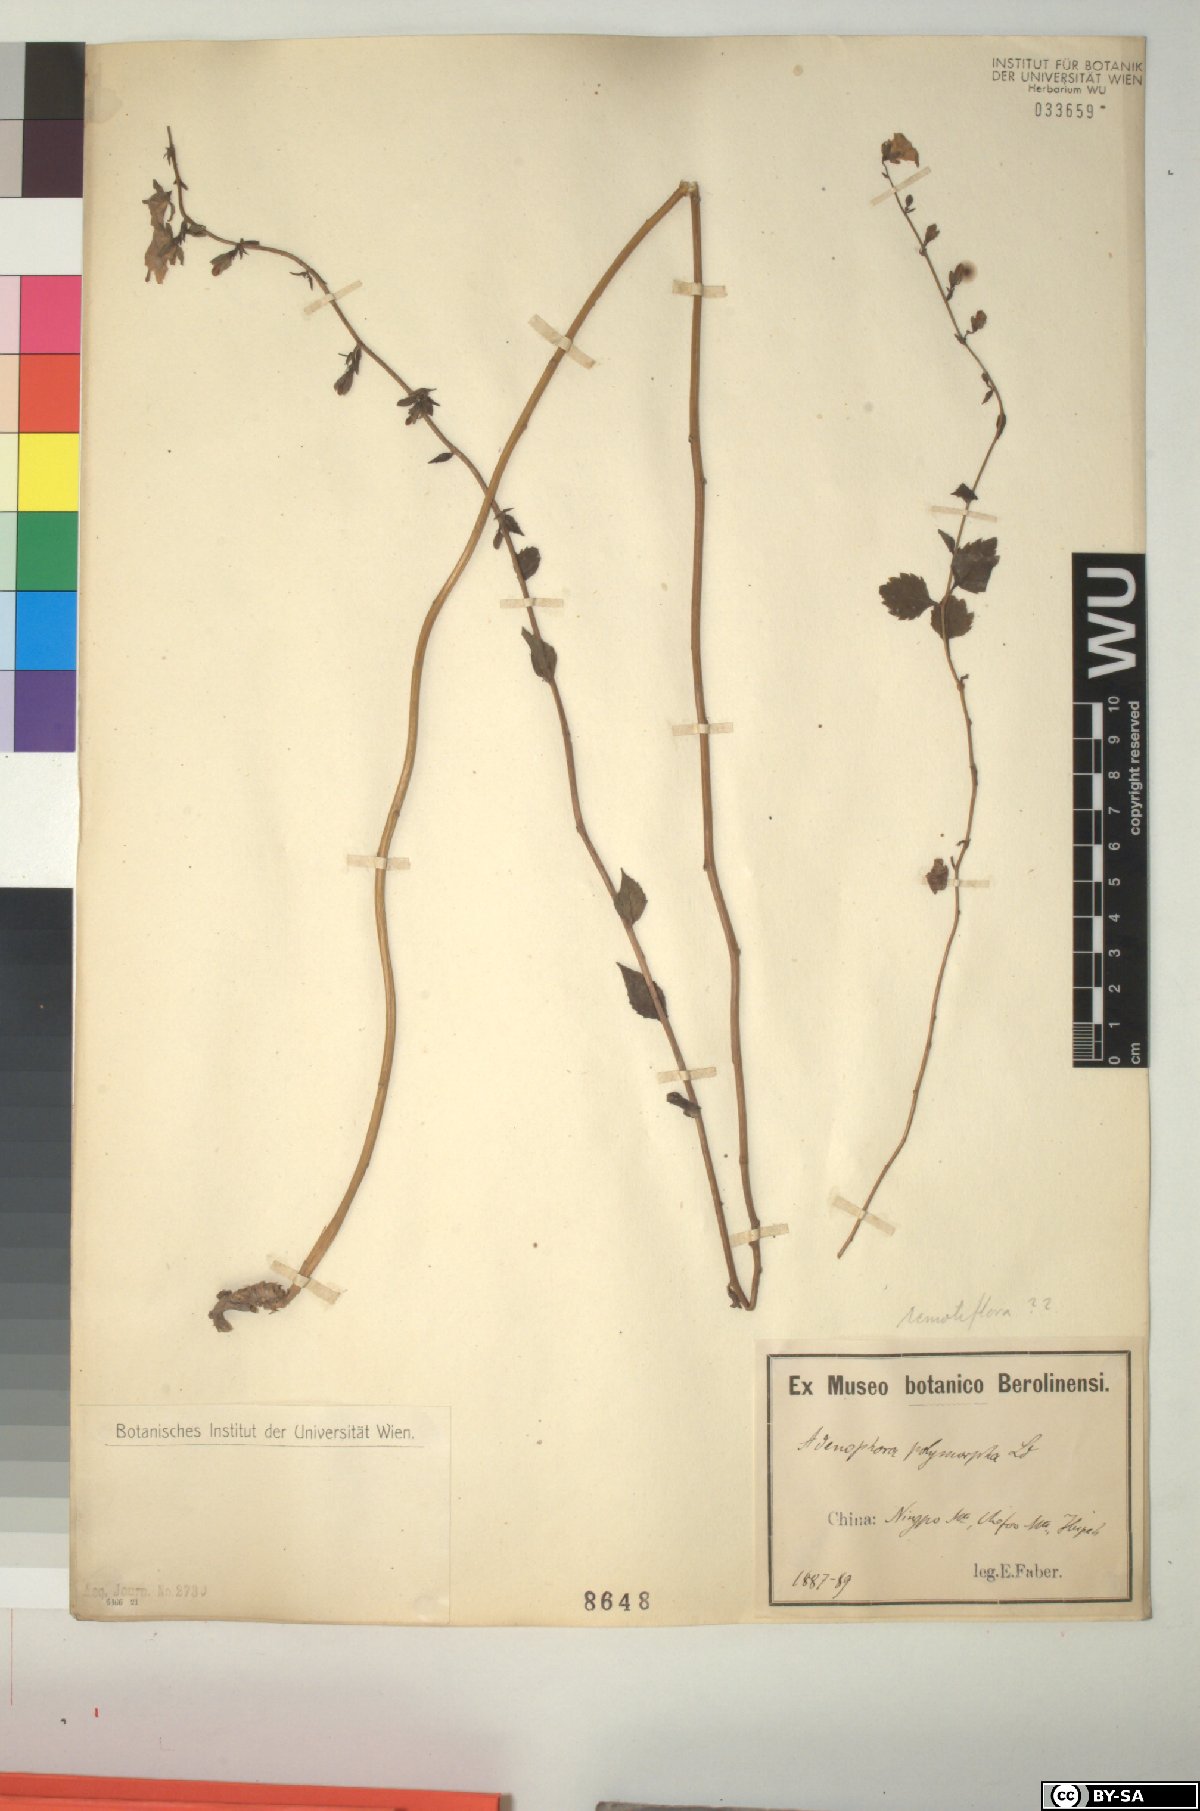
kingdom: Plantae
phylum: Tracheophyta
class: Magnoliopsida
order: Asterales
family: Campanulaceae
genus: Adenophora
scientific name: Adenophora liliifolia
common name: Lilyleaf ladybells
